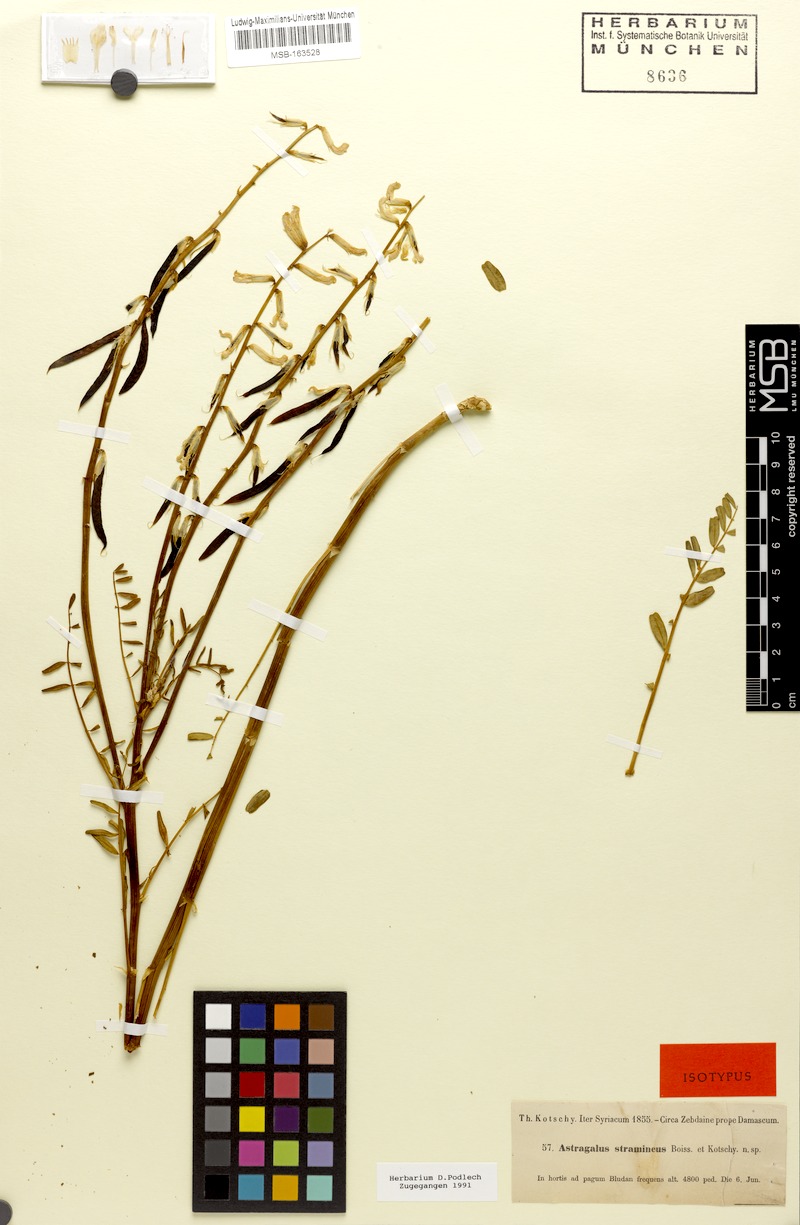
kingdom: Plantae
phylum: Tracheophyta
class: Magnoliopsida
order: Fabales
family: Fabaceae
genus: Astragalus
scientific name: Astragalus siliquosus
